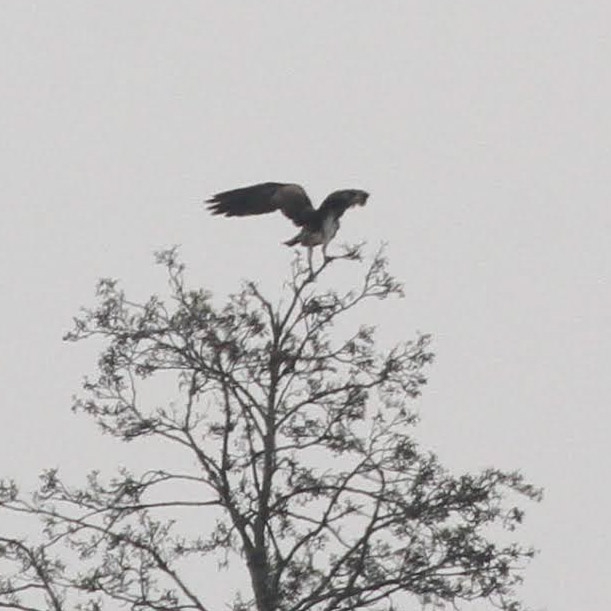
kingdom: Animalia
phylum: Chordata
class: Aves
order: Accipitriformes
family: Pandionidae
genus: Pandion
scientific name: Pandion haliaetus
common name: Fiskeørn
